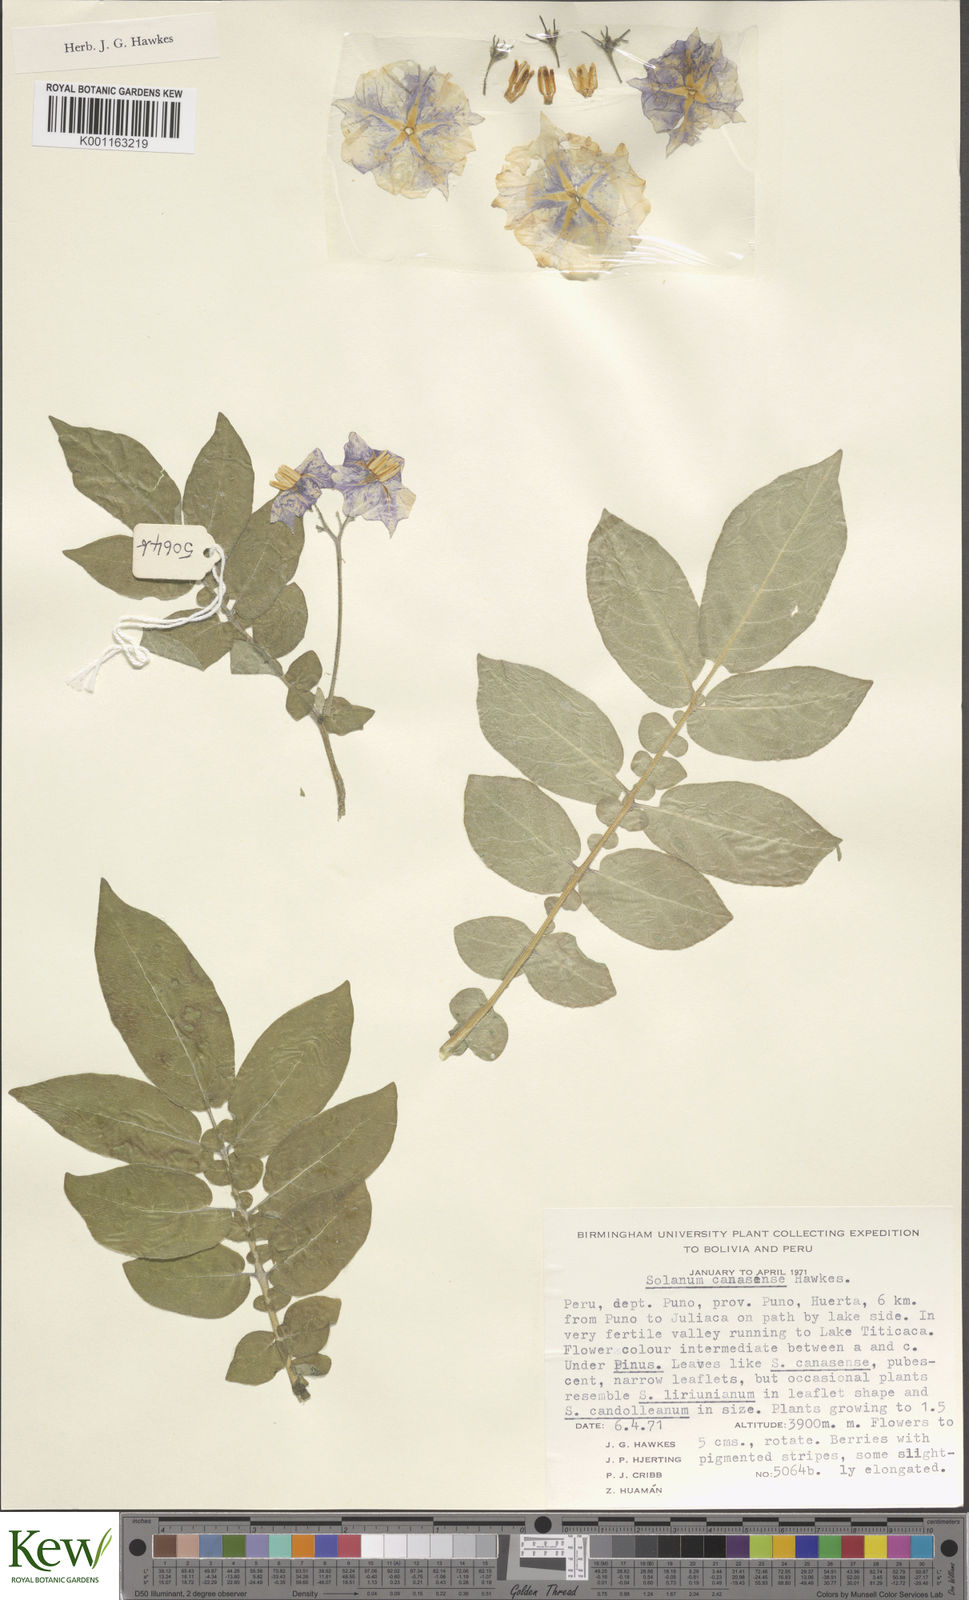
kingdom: Plantae
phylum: Tracheophyta
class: Magnoliopsida
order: Solanales
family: Solanaceae
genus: Solanum
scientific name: Solanum candolleanum
